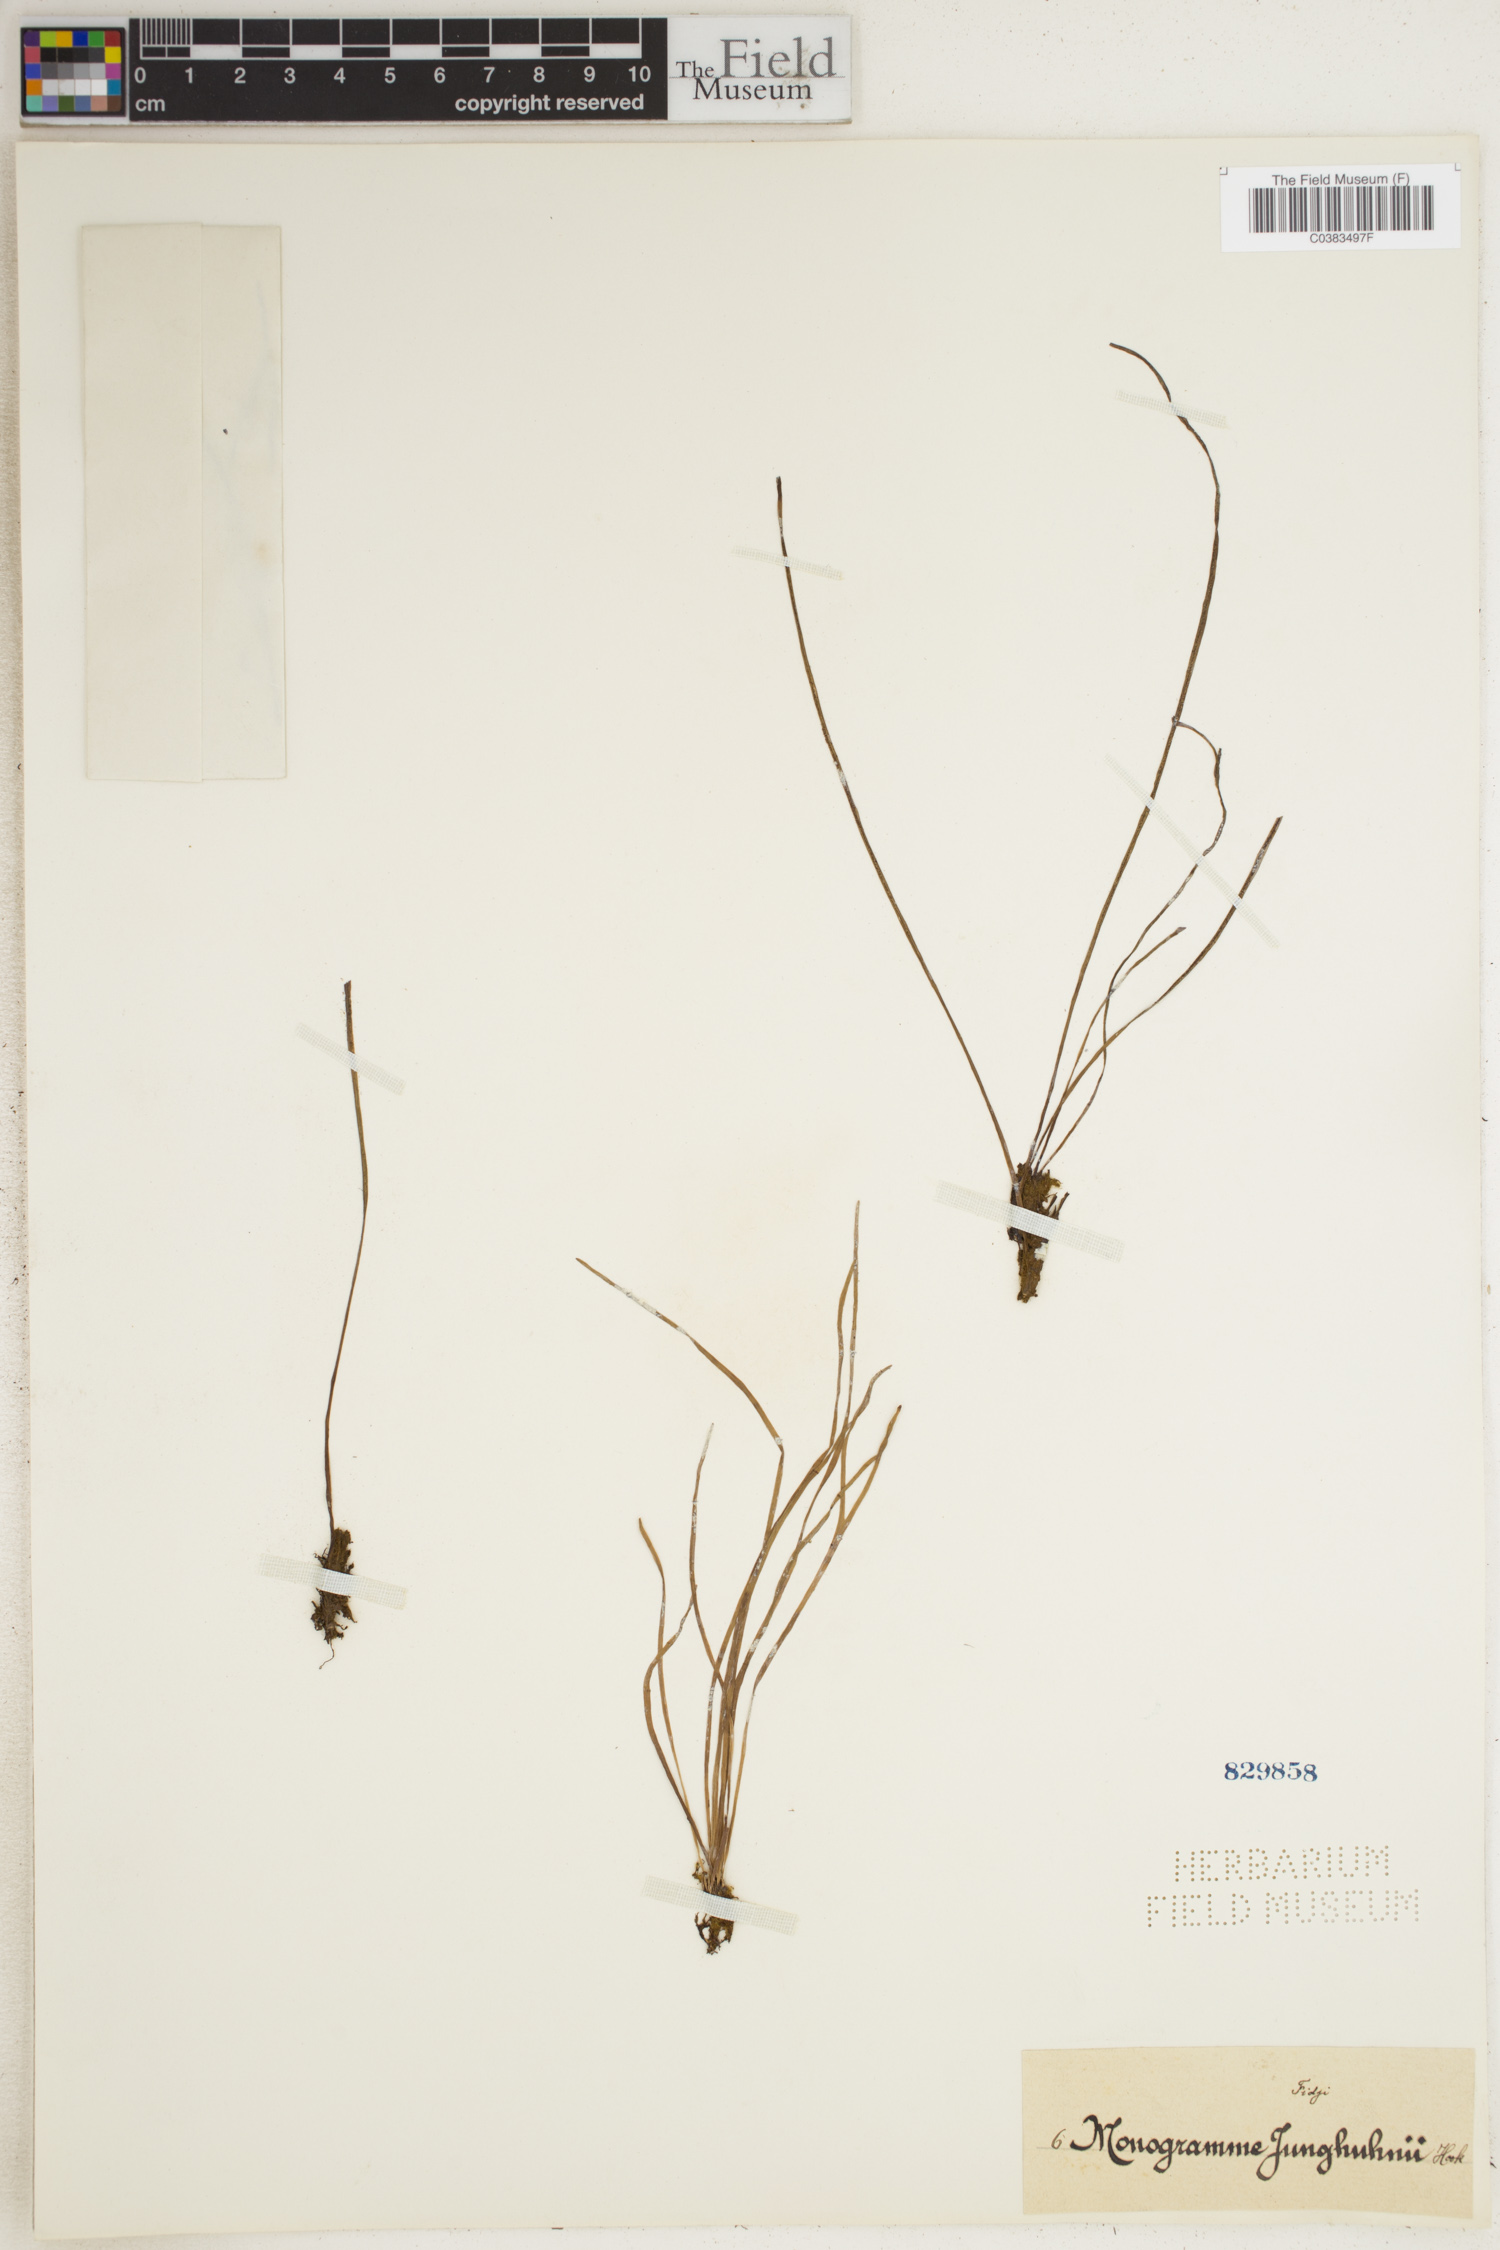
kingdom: Plantae
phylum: Tracheophyta
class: Polypodiopsida
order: Polypodiales
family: Pteridaceae
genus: Vaginularia
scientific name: Vaginularia junghuhnii
